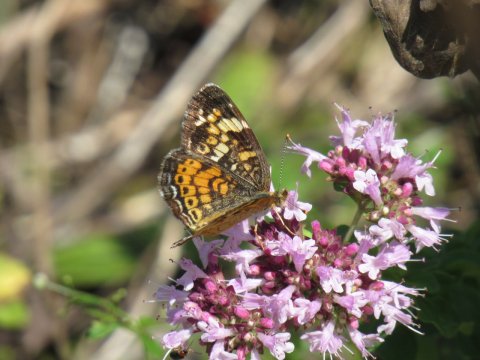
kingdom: Animalia
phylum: Arthropoda
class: Insecta
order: Lepidoptera
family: Nymphalidae
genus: Phyciodes
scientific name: Phyciodes
